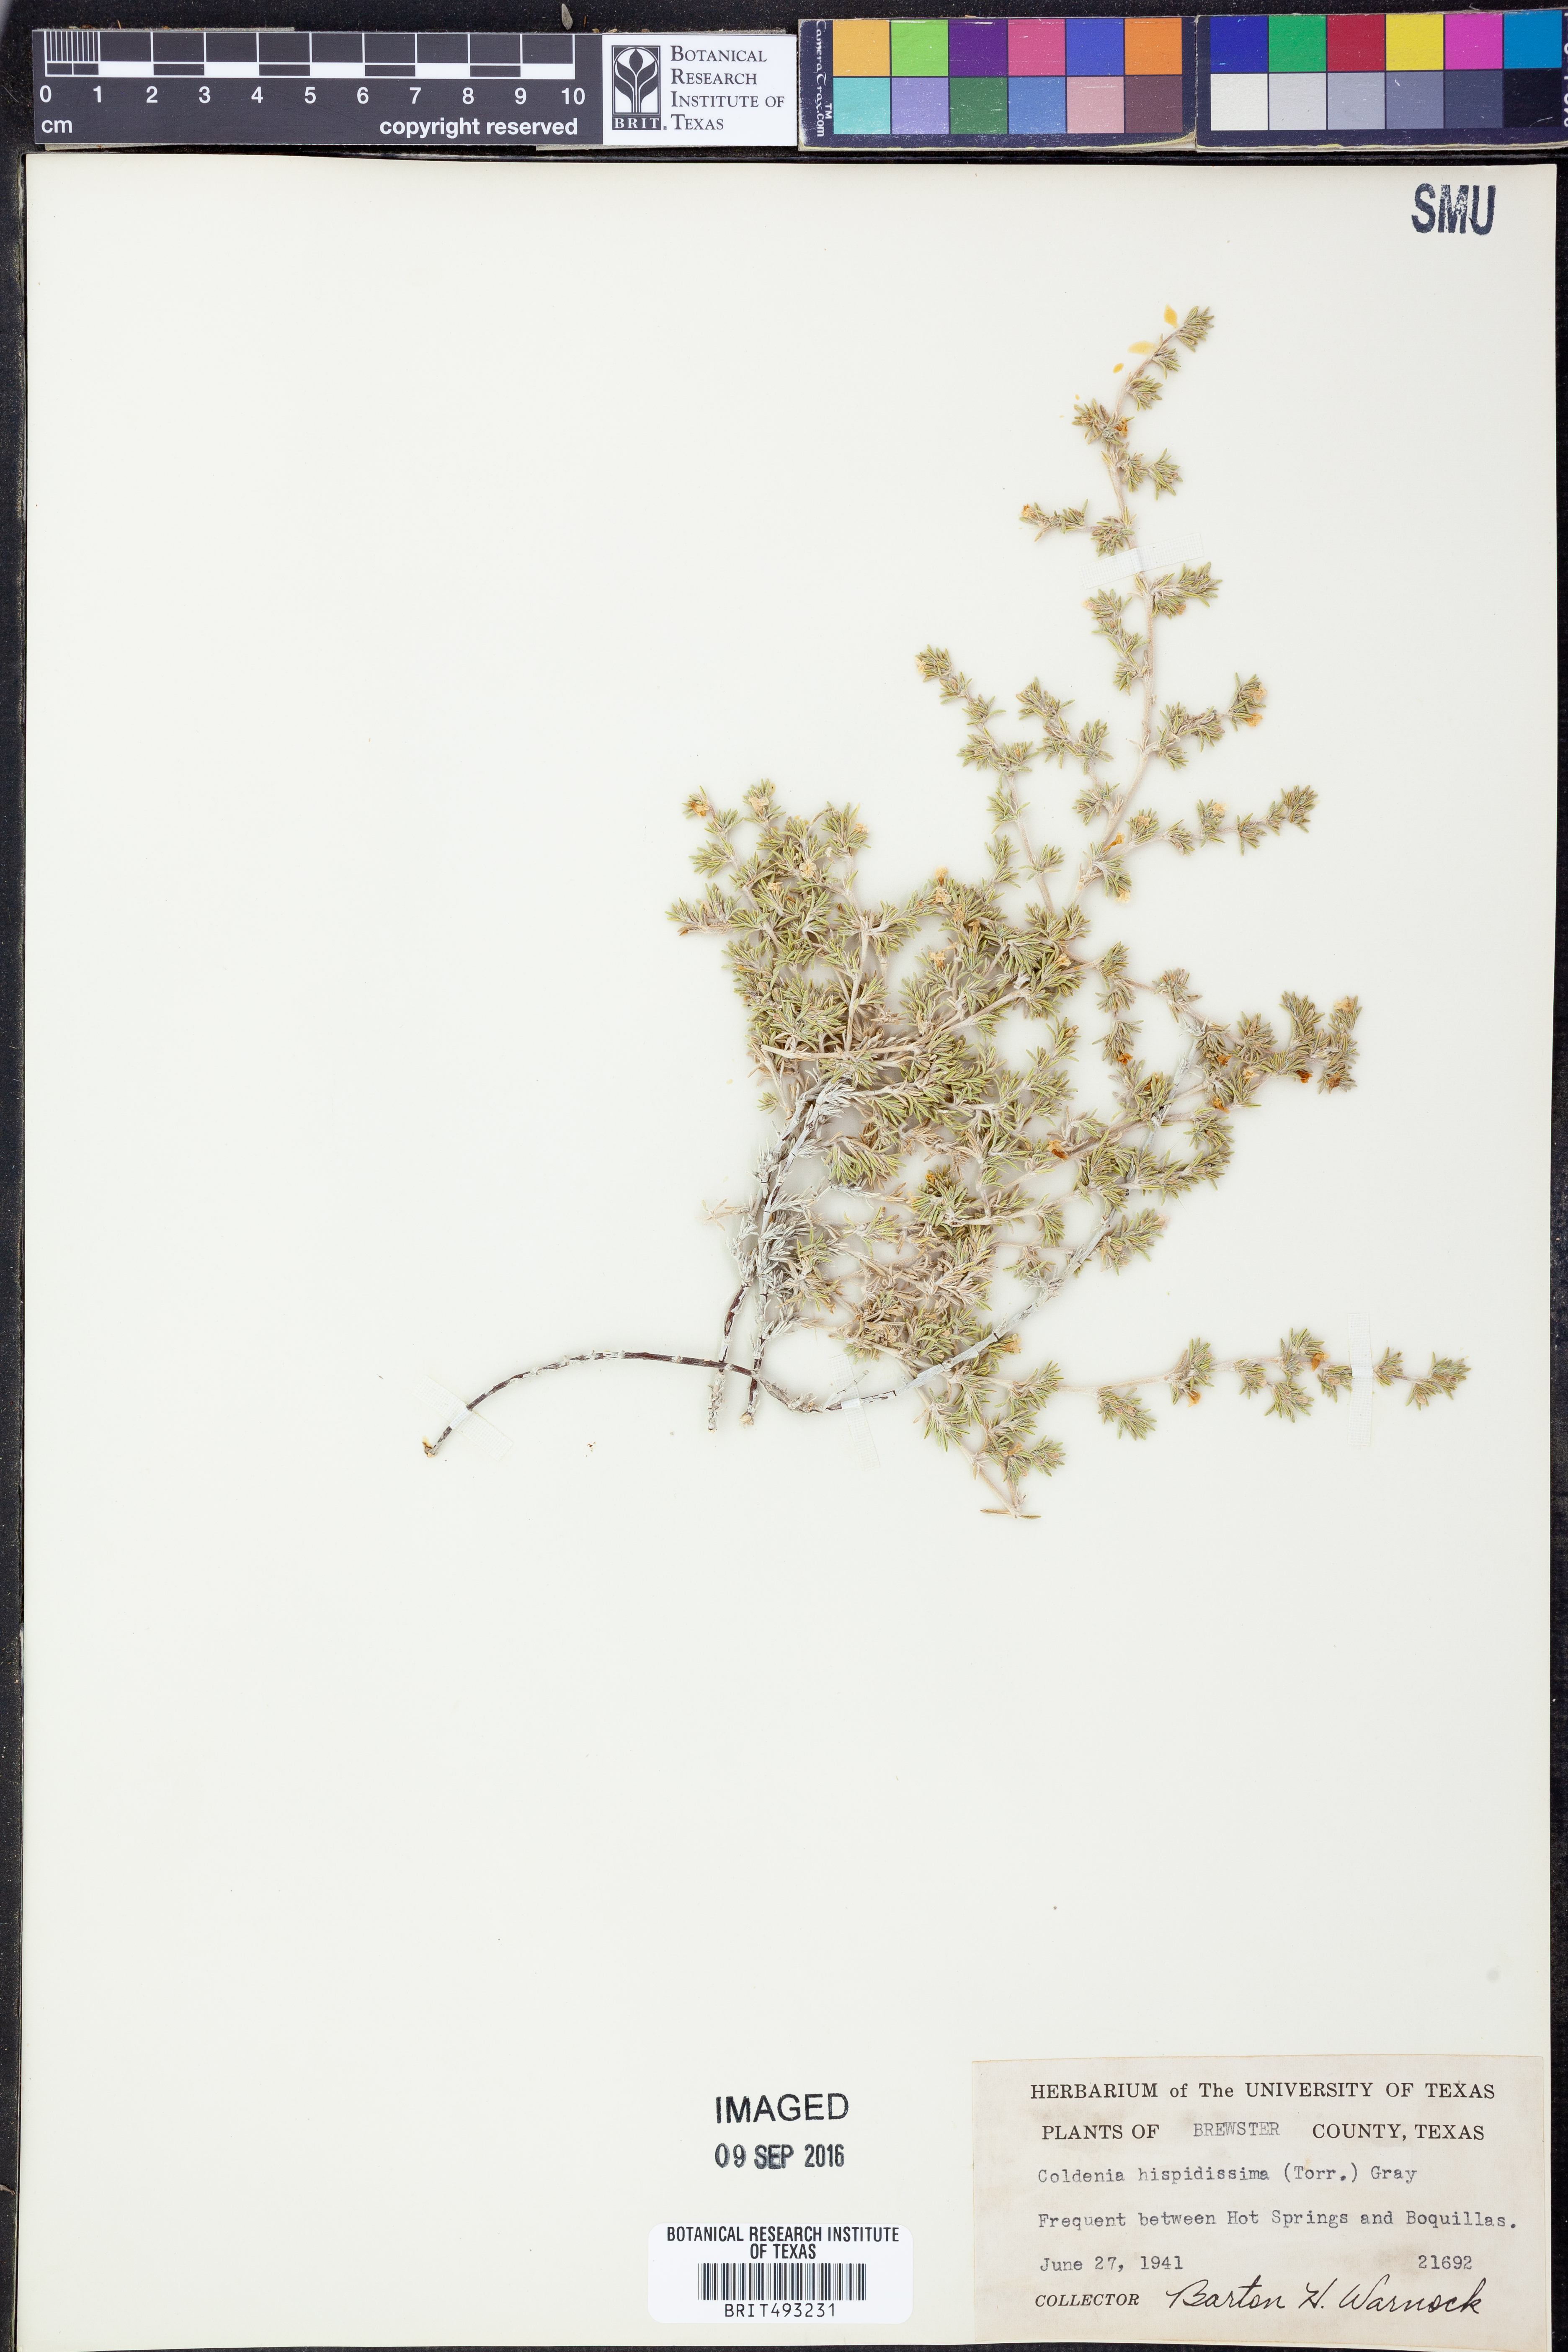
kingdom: Plantae
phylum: Tracheophyta
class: Magnoliopsida
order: Boraginales
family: Ehretiaceae
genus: Tiquilia
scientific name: Tiquilia hispidissima
